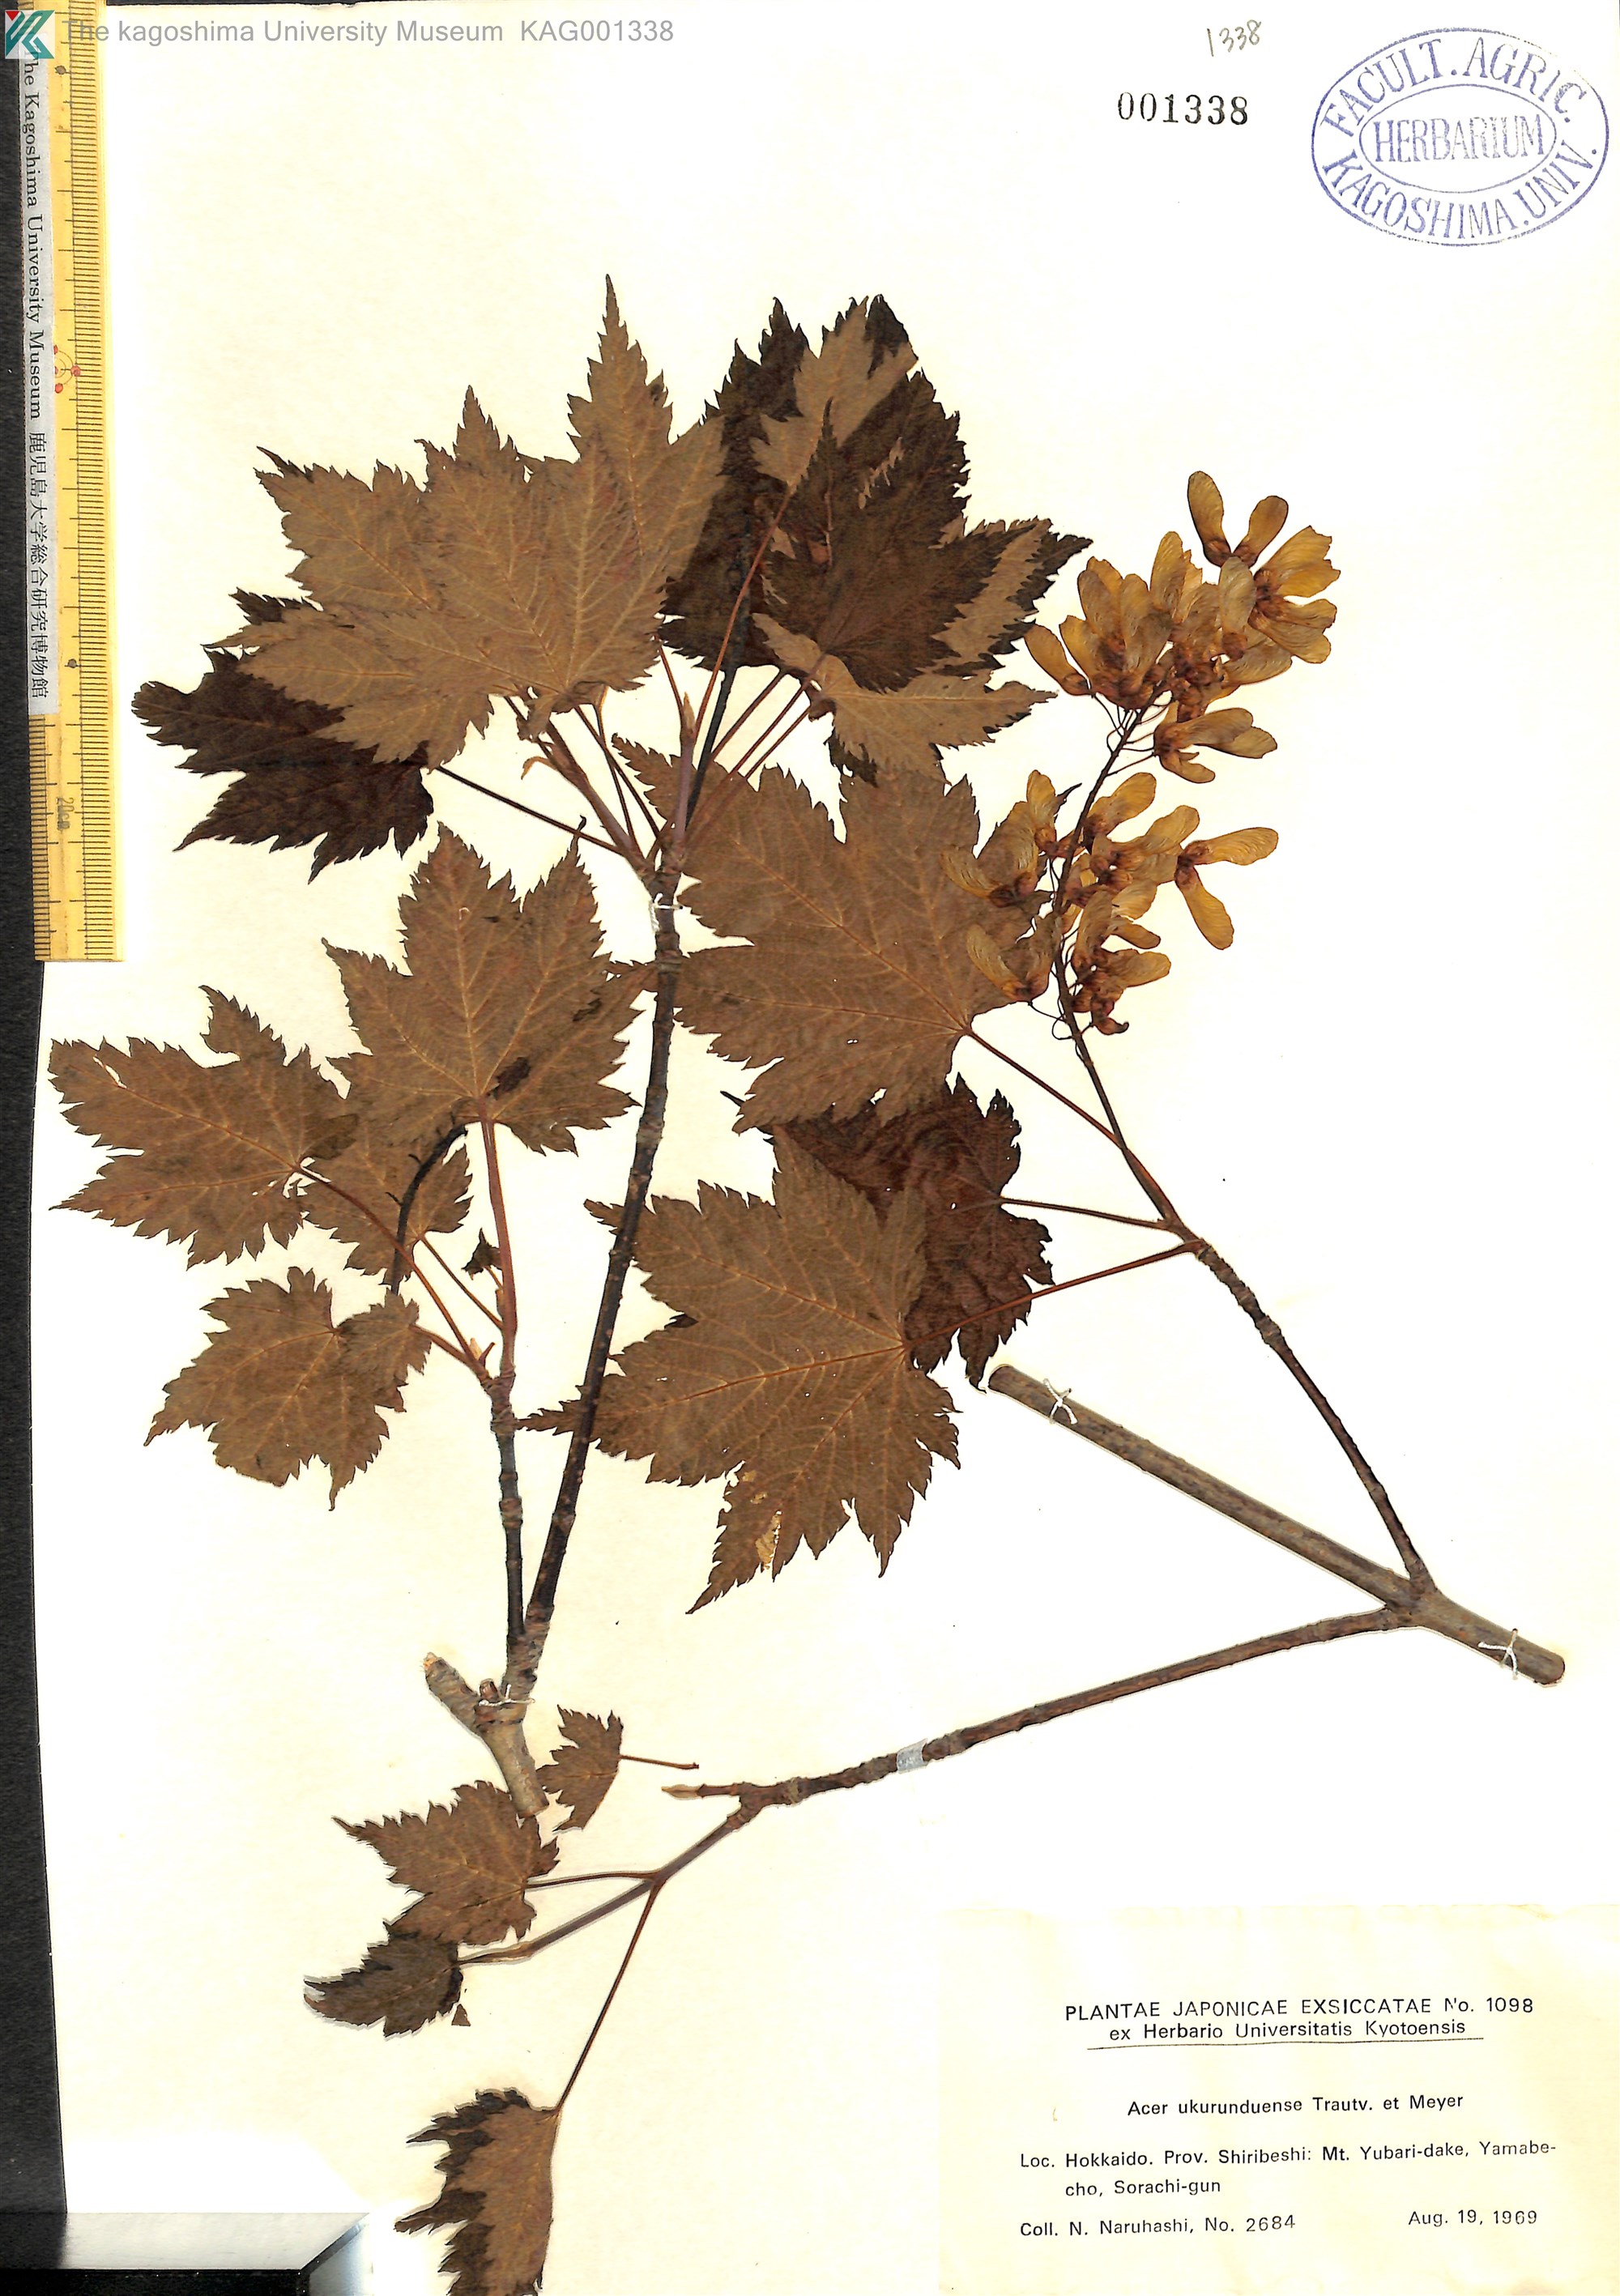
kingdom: Plantae
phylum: Tracheophyta
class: Magnoliopsida
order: Sapindales
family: Sapindaceae
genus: Acer
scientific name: Acer ukurunduense
